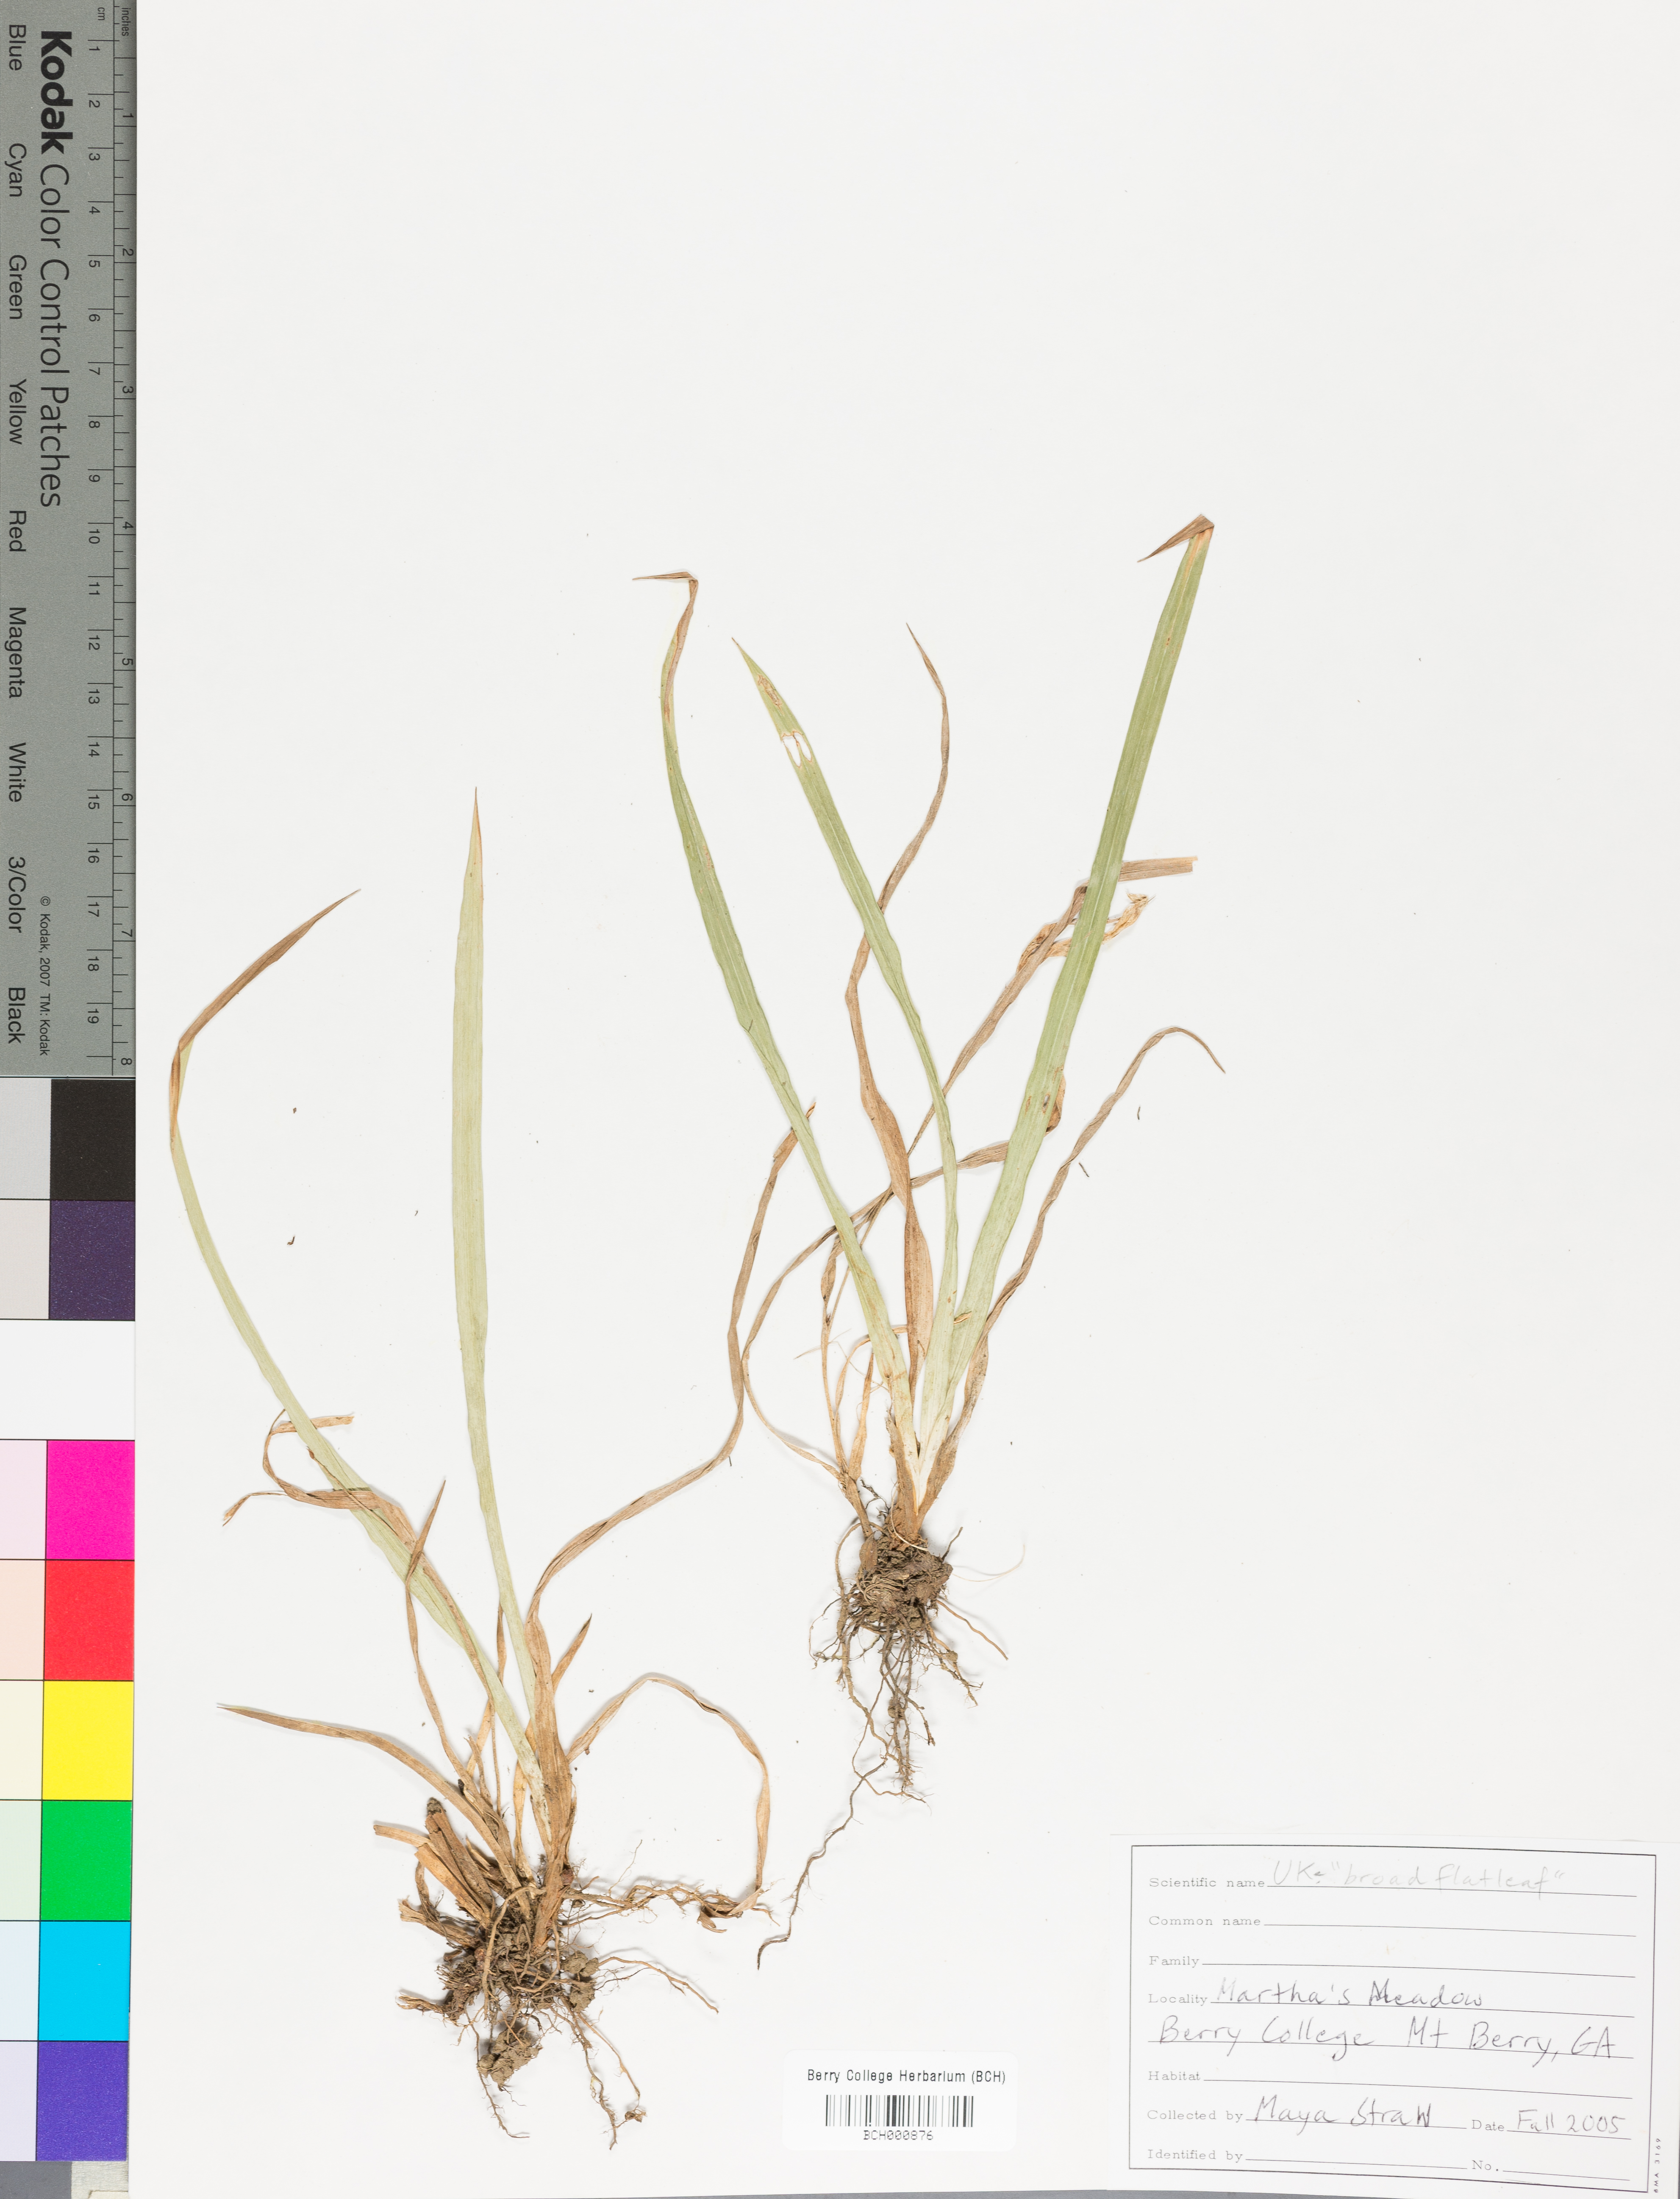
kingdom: Plantae
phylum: Tracheophyta
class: Magnoliopsida
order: Lamiales
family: Acanthaceae
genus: Adhatoda
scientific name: Adhatoda
